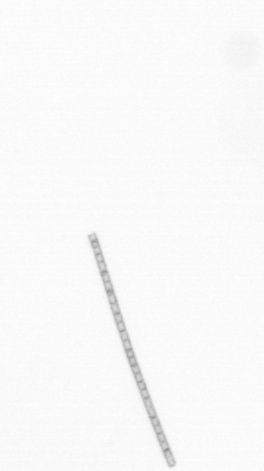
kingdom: Chromista
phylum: Ochrophyta
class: Bacillariophyceae
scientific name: Bacillariophyceae
